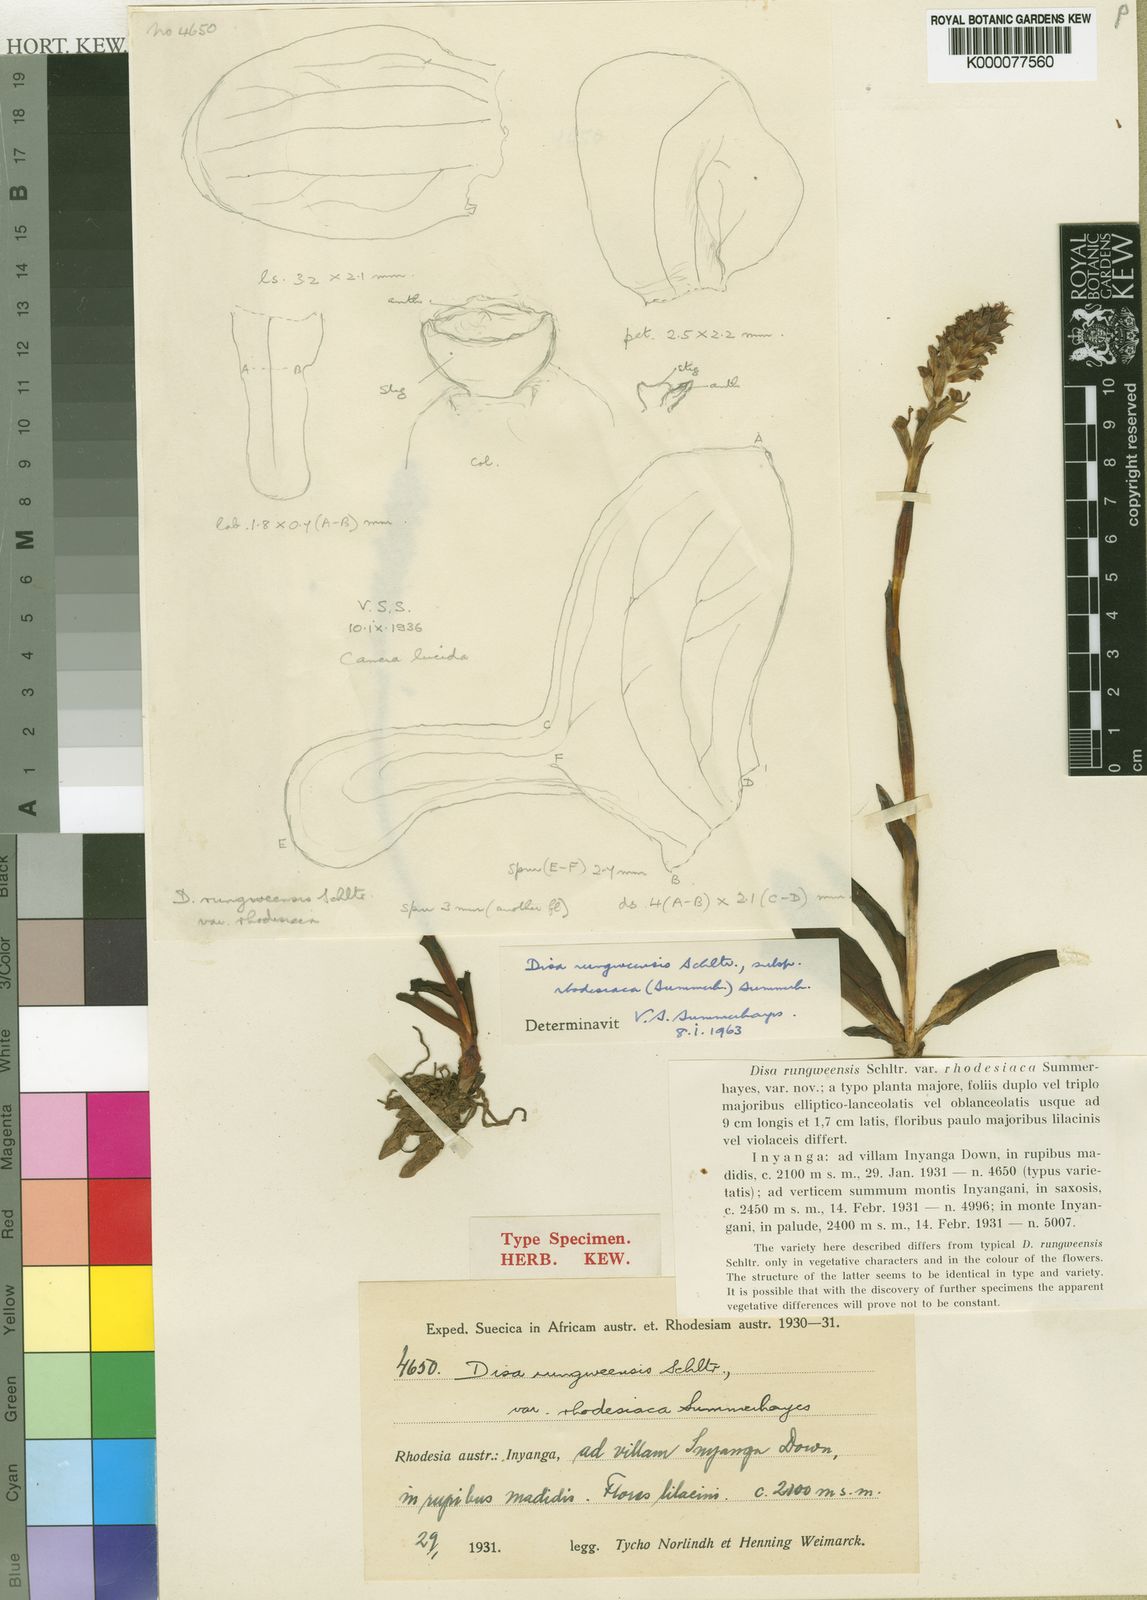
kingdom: Plantae
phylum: Tracheophyta
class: Liliopsida
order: Asparagales
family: Orchidaceae
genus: Disa
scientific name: Disa zimbabweensis
